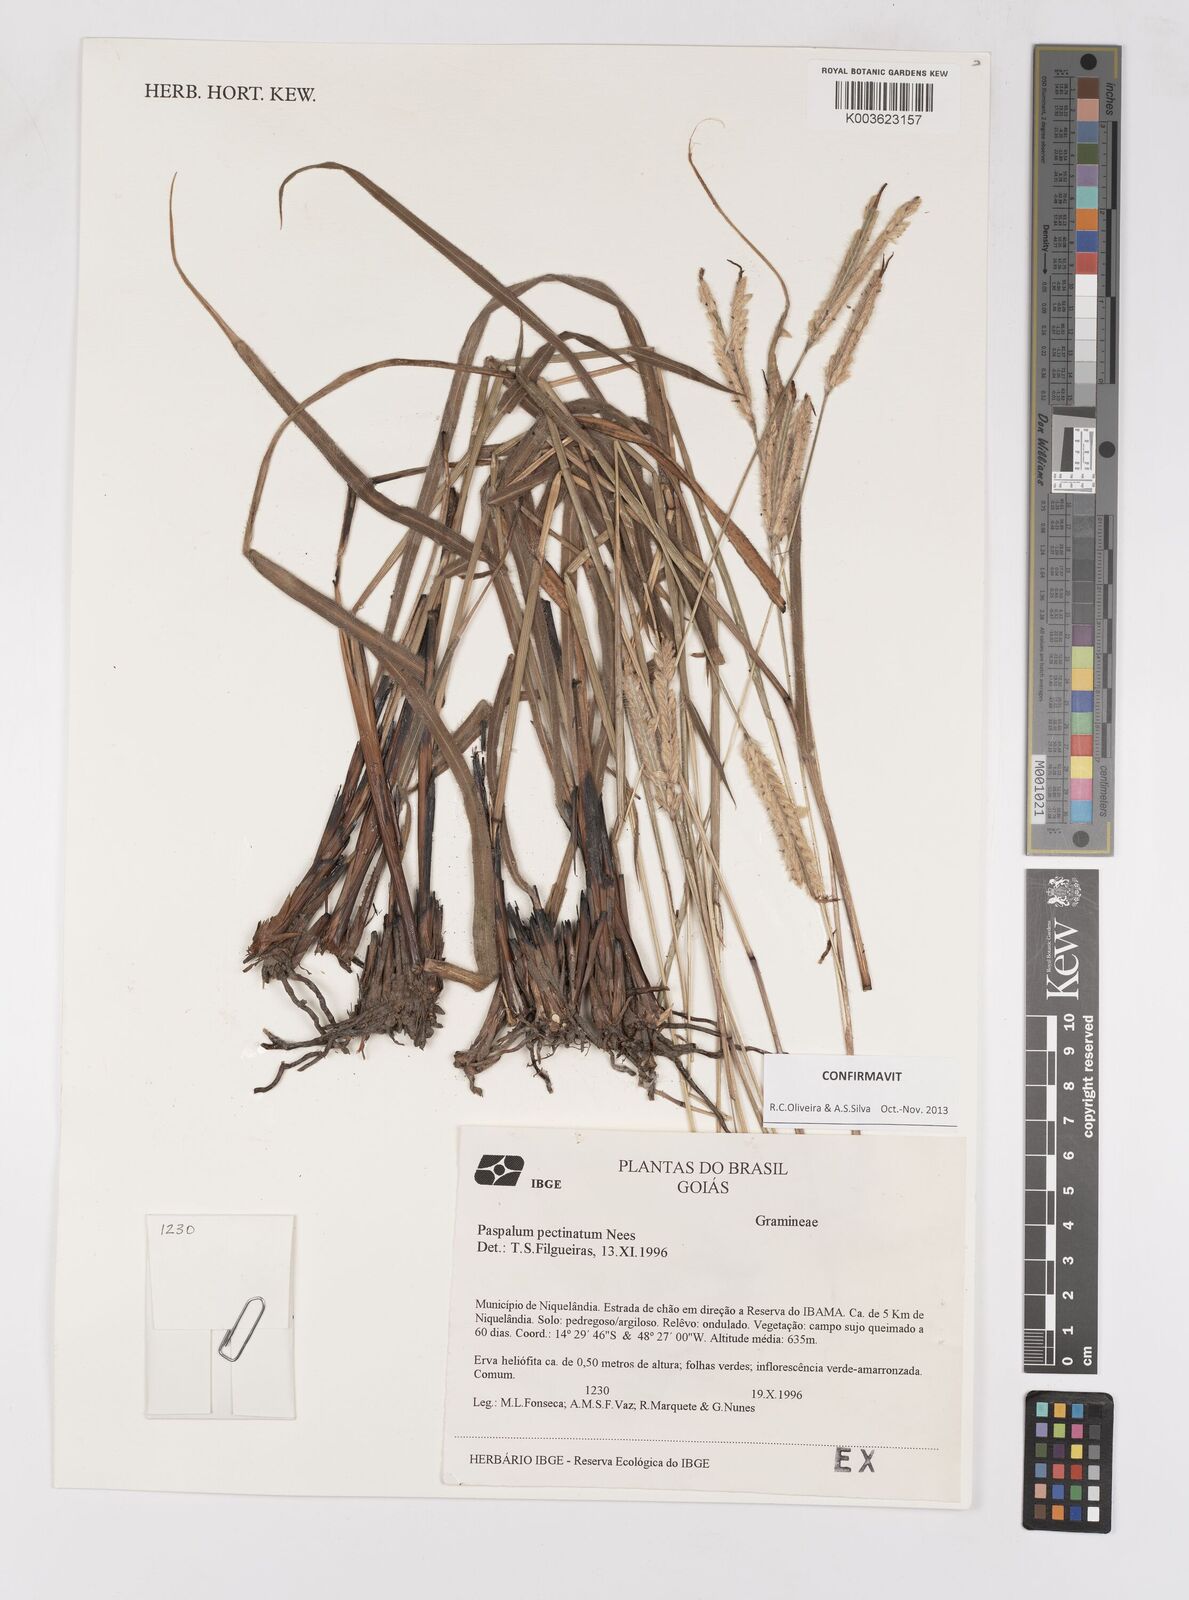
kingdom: Plantae
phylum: Tracheophyta
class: Liliopsida
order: Poales
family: Poaceae
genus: Paspalum
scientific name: Paspalum pectinatum
